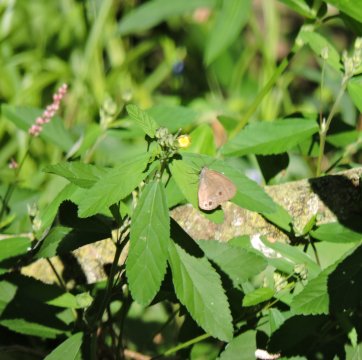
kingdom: Animalia
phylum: Arthropoda
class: Insecta
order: Lepidoptera
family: Nymphalidae
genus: Hermeuptychia
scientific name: Hermeuptychia hermes
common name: Carolina Satyr
